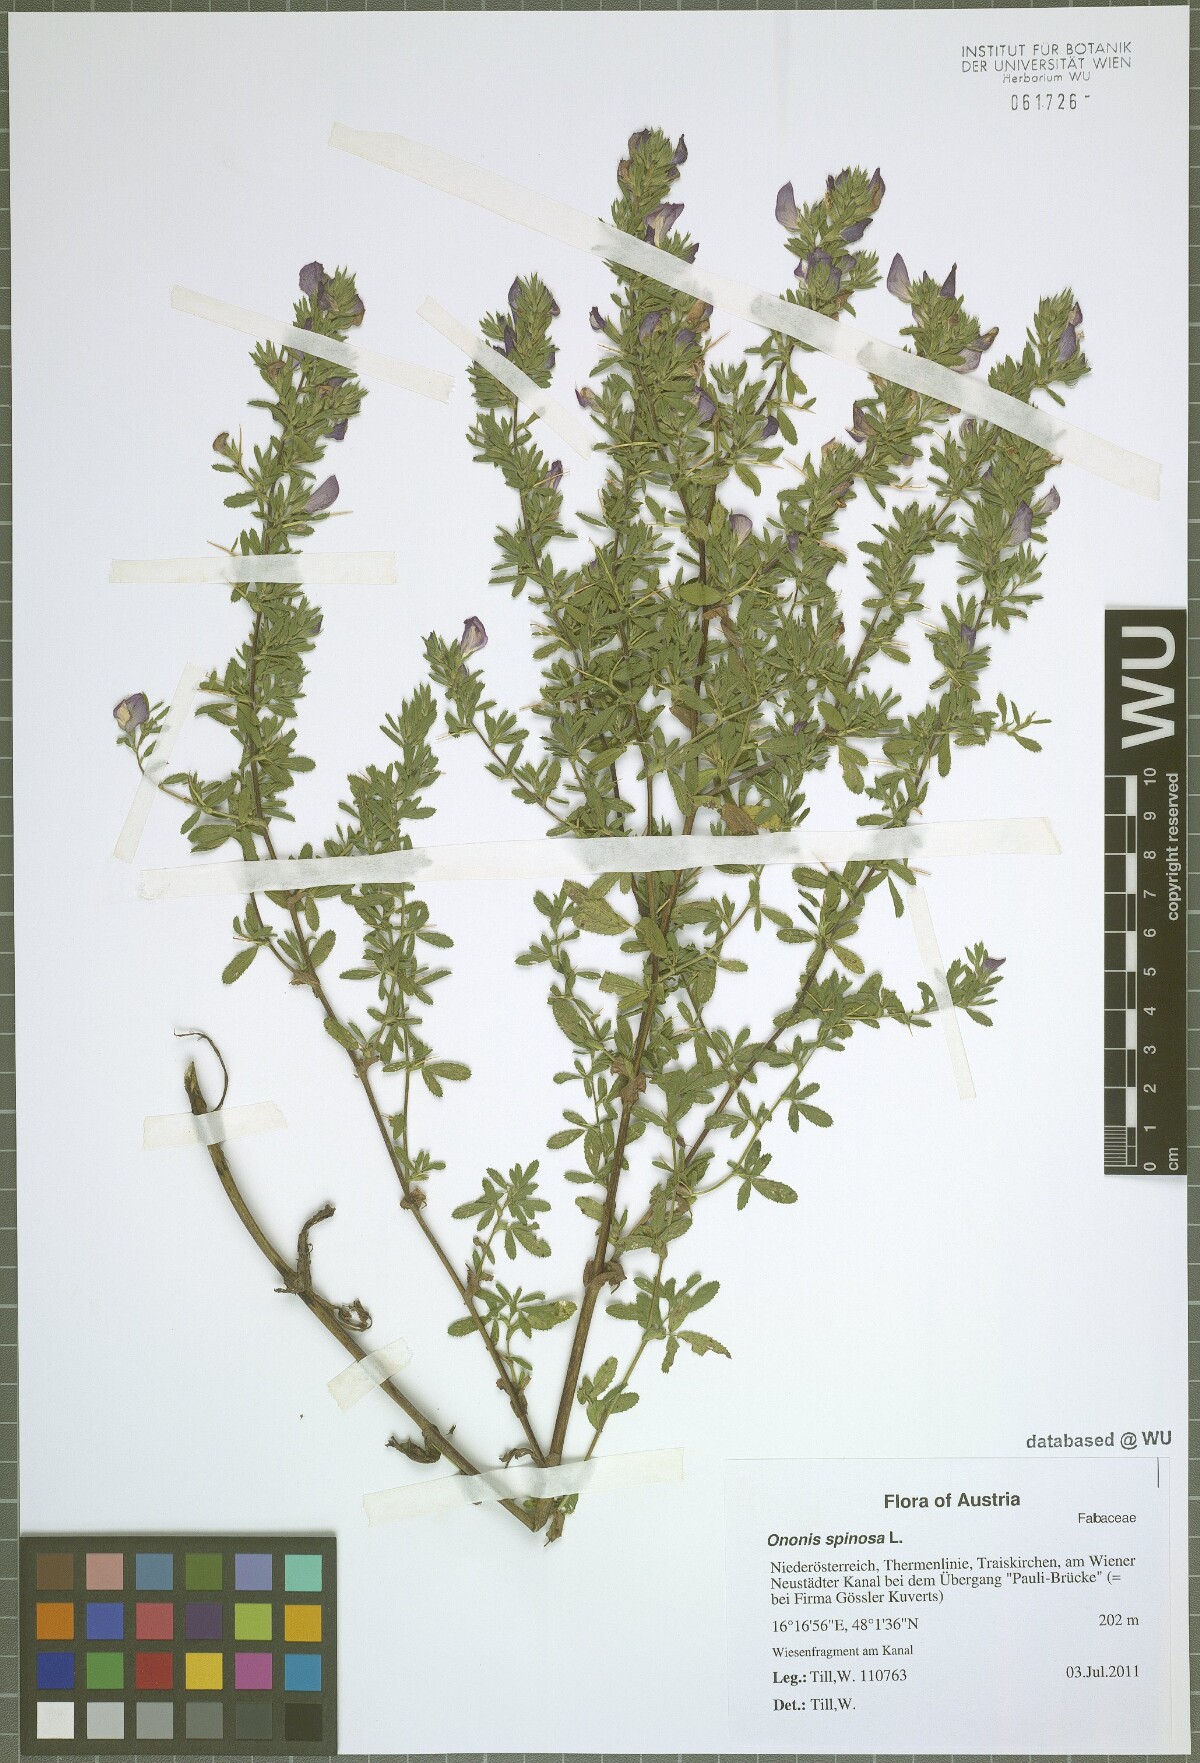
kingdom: Plantae
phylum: Tracheophyta
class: Magnoliopsida
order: Fabales
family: Fabaceae
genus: Ononis
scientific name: Ononis spinosa
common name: Spiny restharrow
